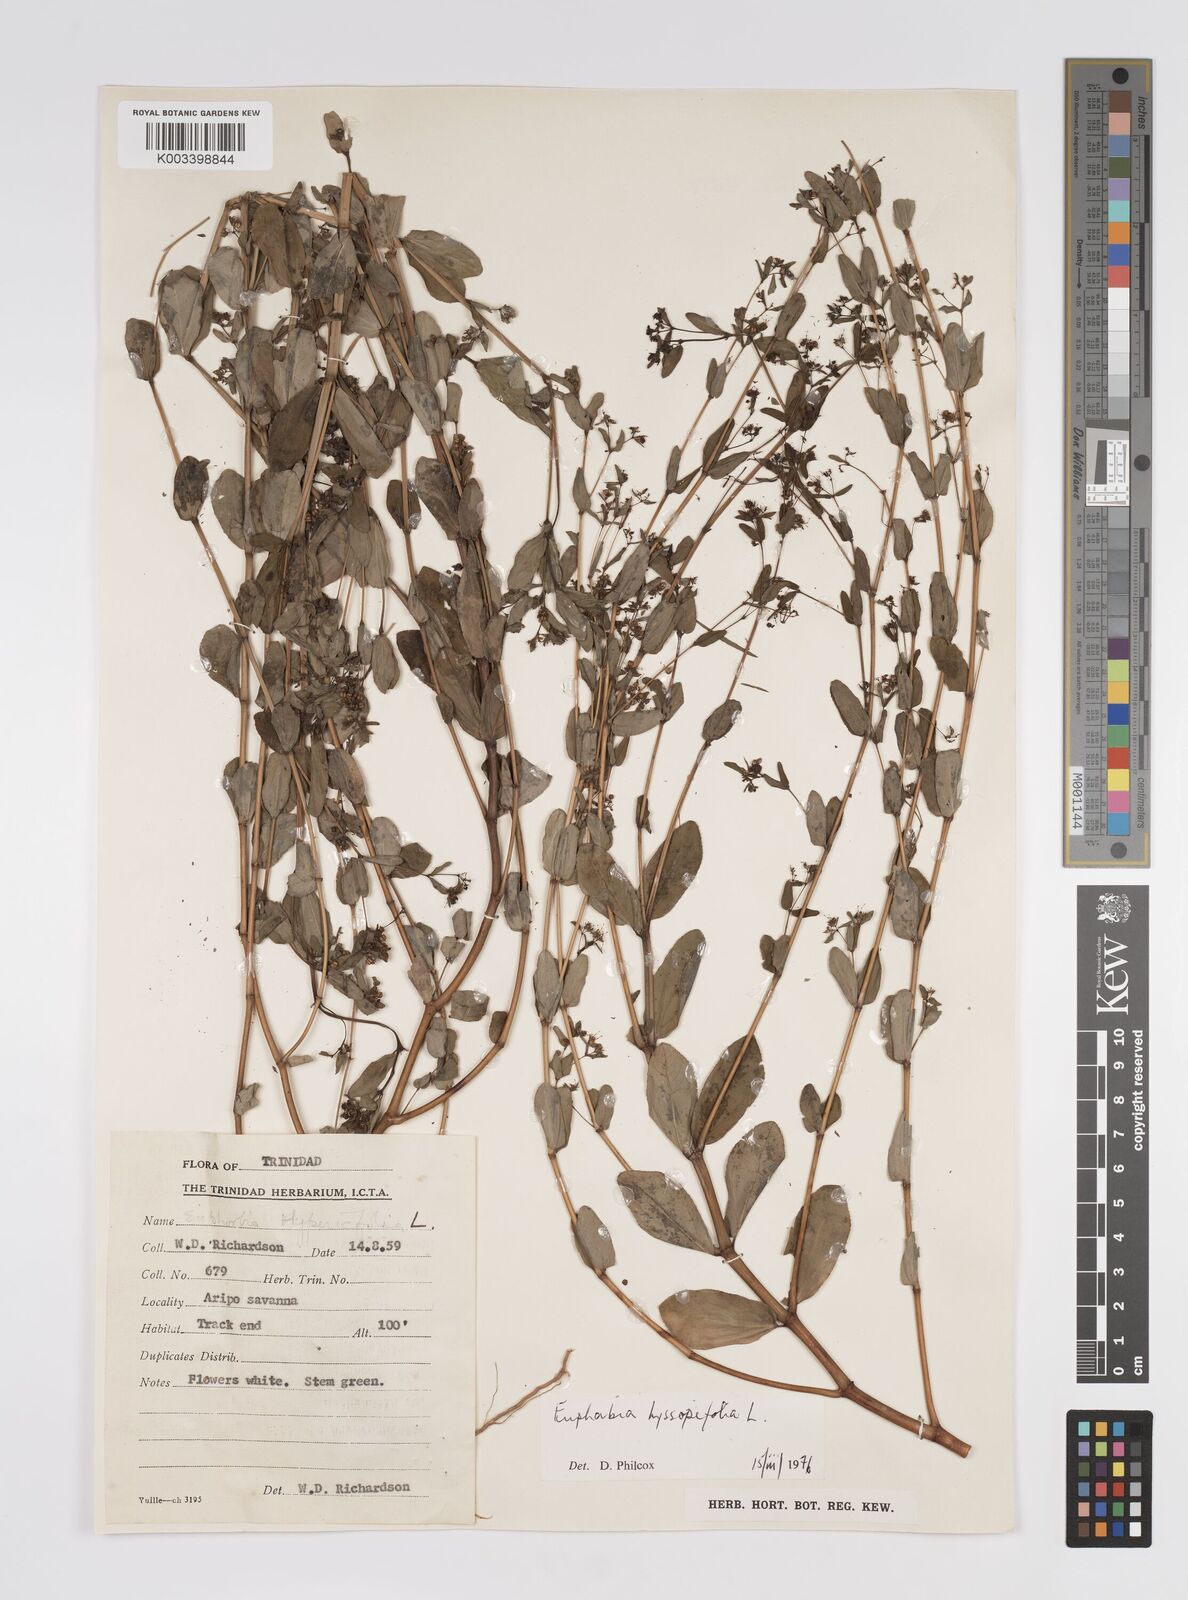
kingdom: Plantae
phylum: Tracheophyta
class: Magnoliopsida
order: Malpighiales
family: Euphorbiaceae
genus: Euphorbia
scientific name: Euphorbia hyssopifolia
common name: Hyssopleaf sandmat
